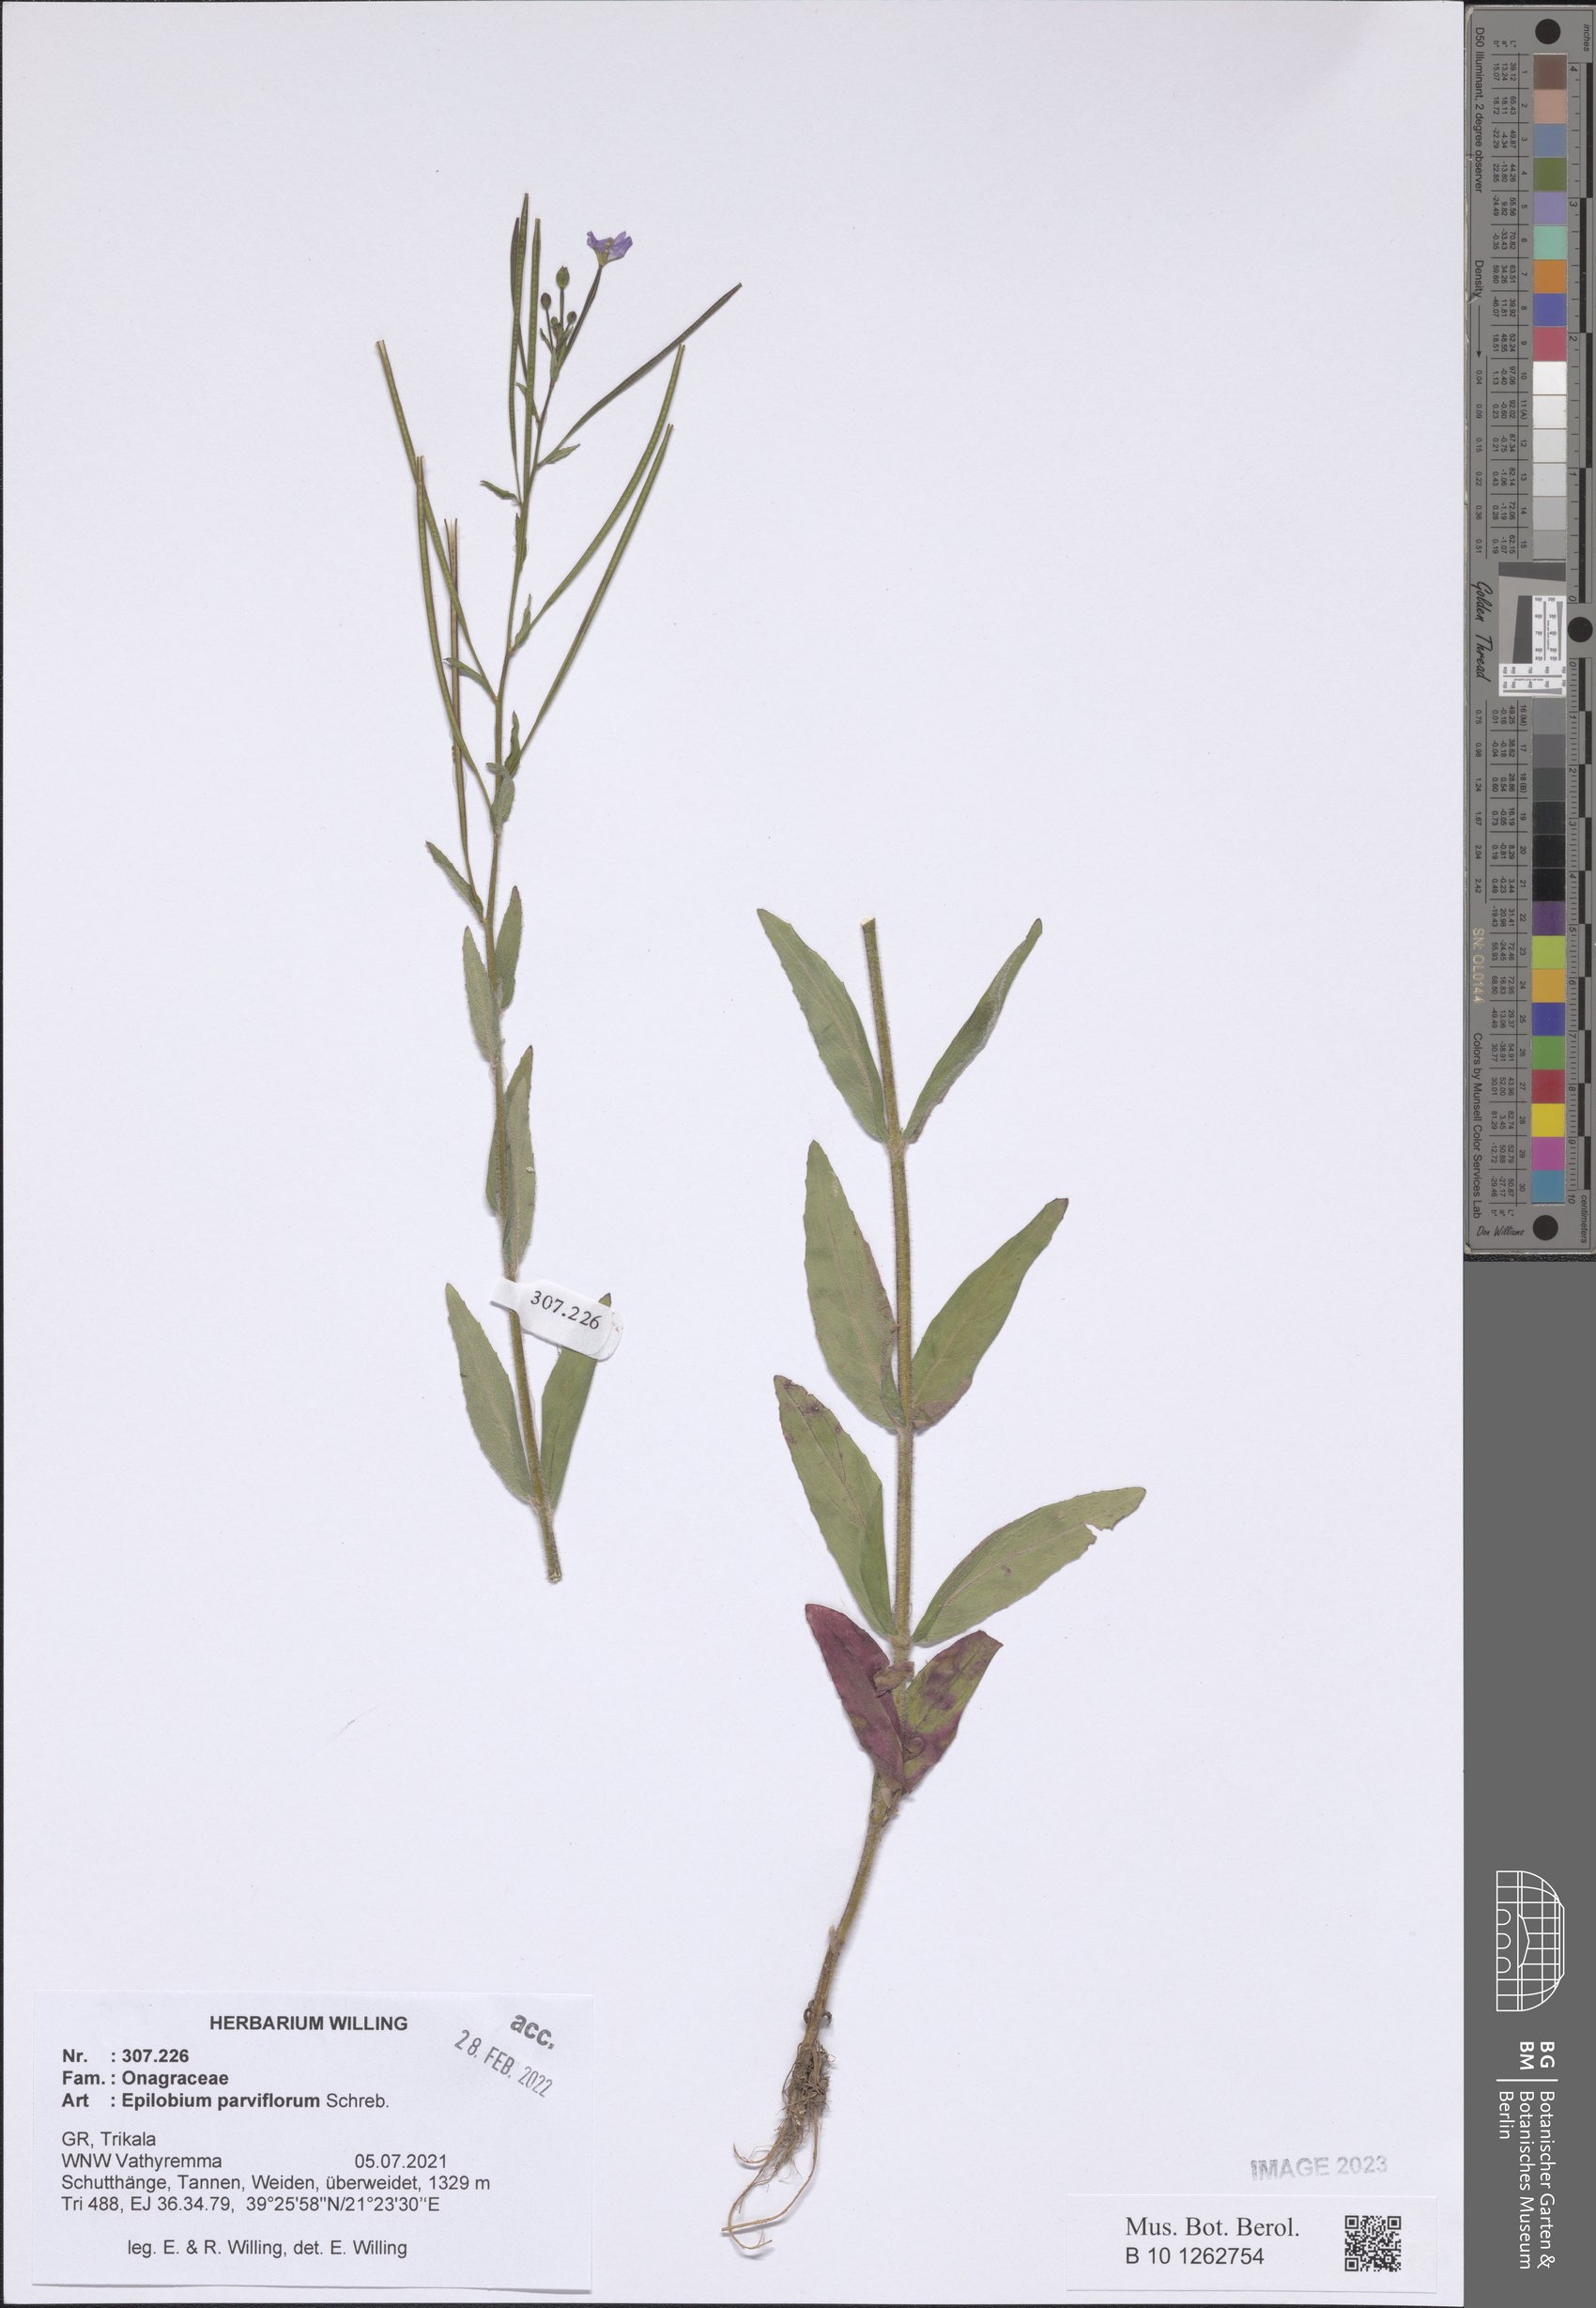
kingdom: Plantae
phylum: Tracheophyta
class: Magnoliopsida
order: Myrtales
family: Onagraceae
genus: Epilobium
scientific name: Epilobium parviflorum
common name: Hoary willowherb
